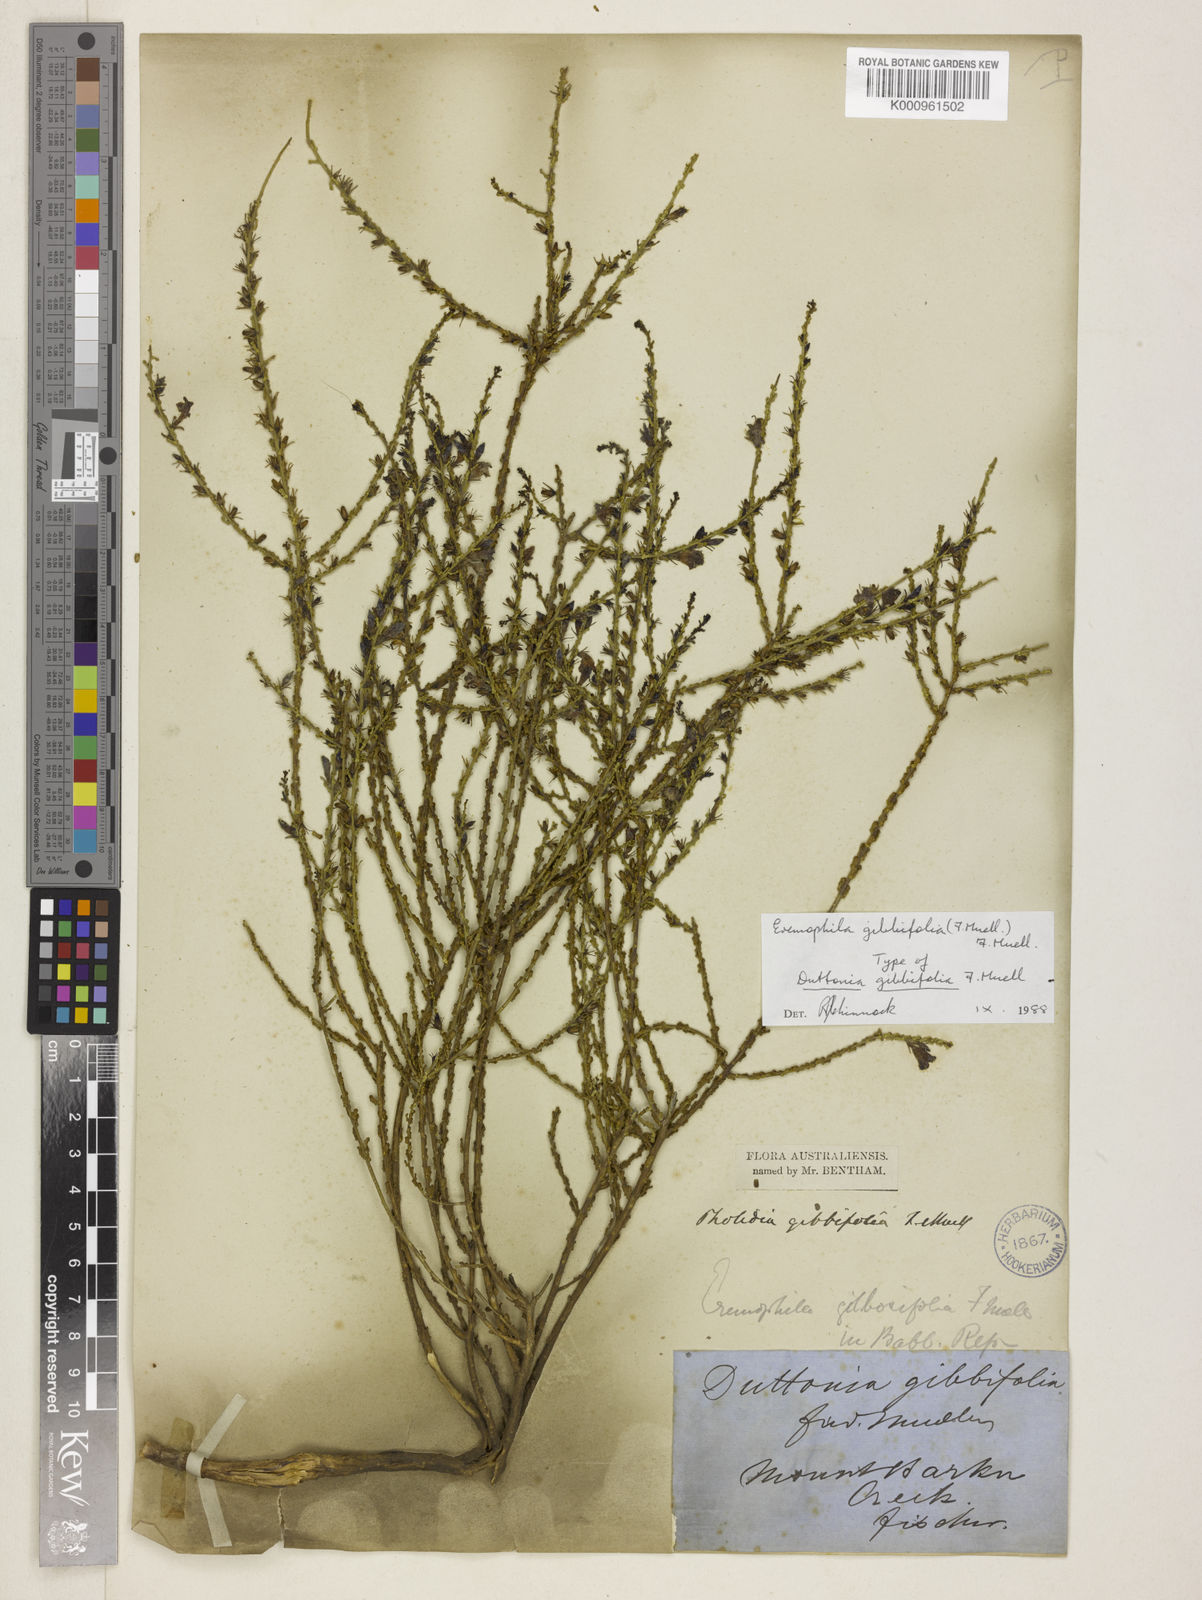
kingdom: Plantae
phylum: Tracheophyta
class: Magnoliopsida
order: Lamiales
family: Scrophulariaceae
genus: Eremophila
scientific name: Eremophila gibbifolia
